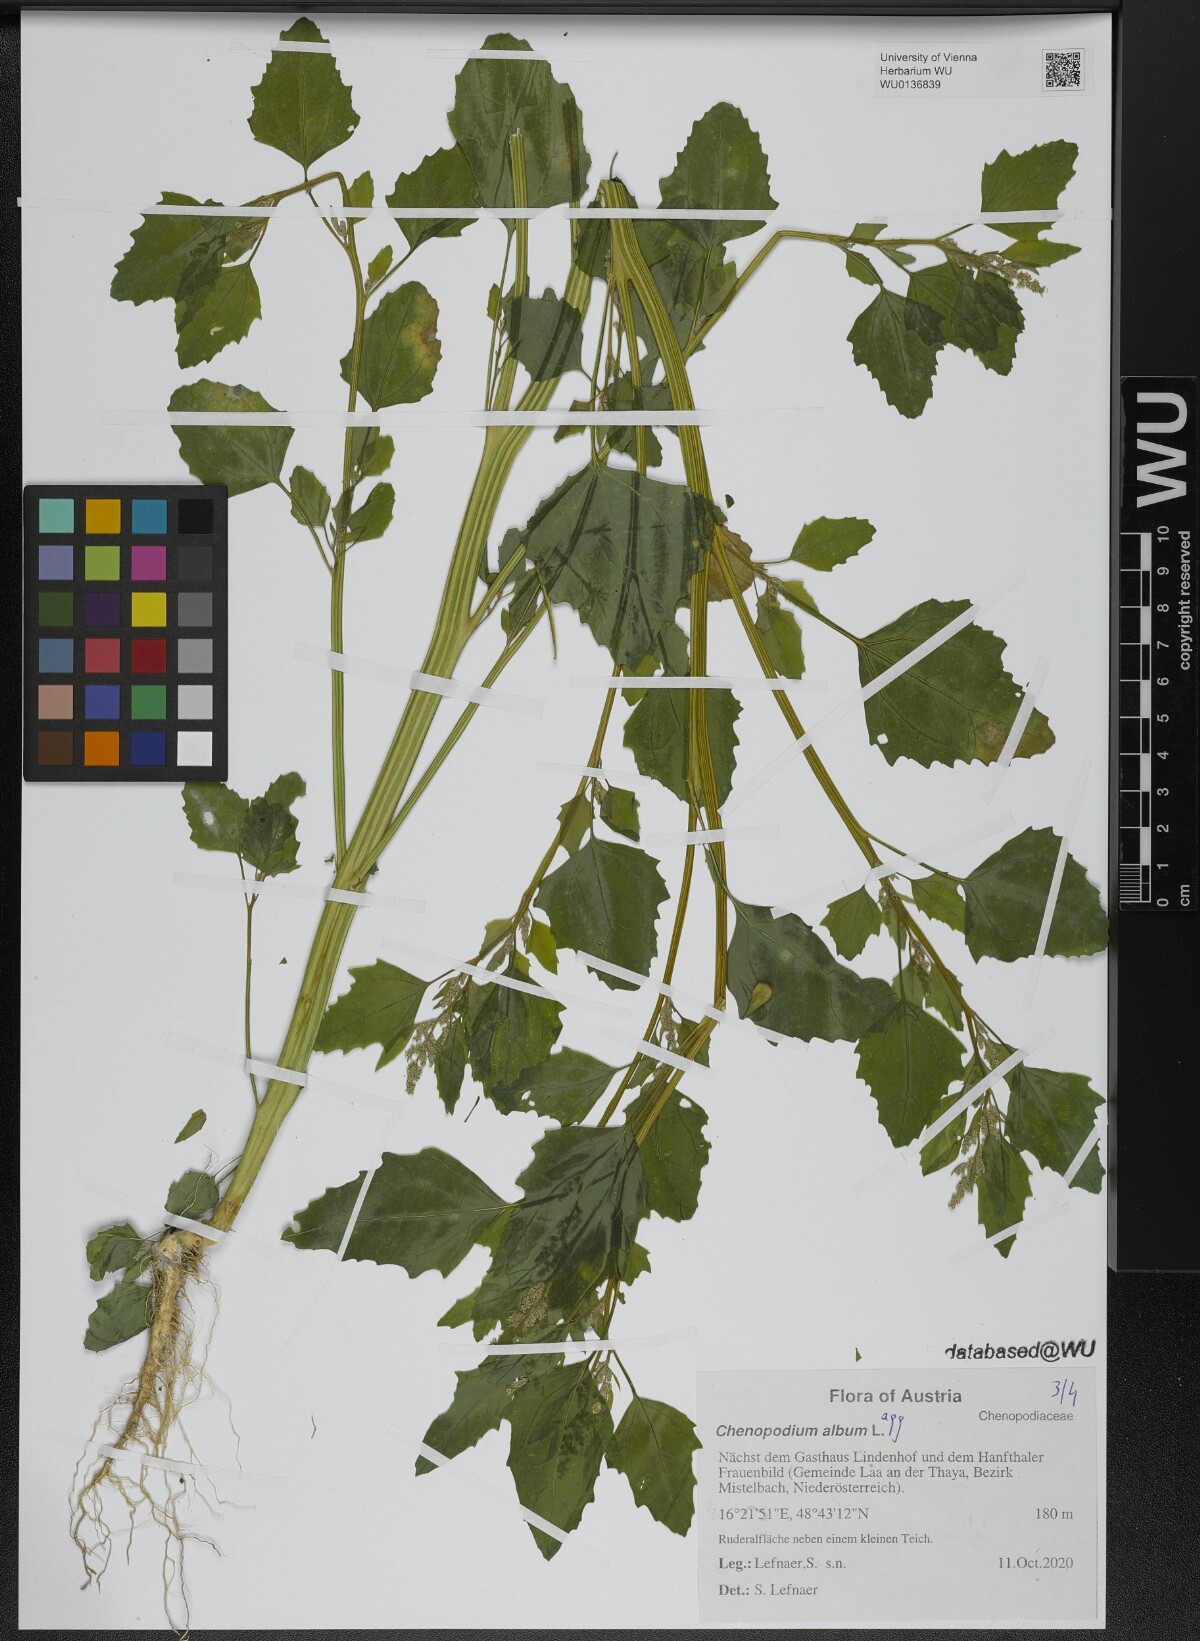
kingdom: Plantae
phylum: Tracheophyta
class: Magnoliopsida
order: Caryophyllales
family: Amaranthaceae
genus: Chenopodium
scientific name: Chenopodium album
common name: Fat-hen
